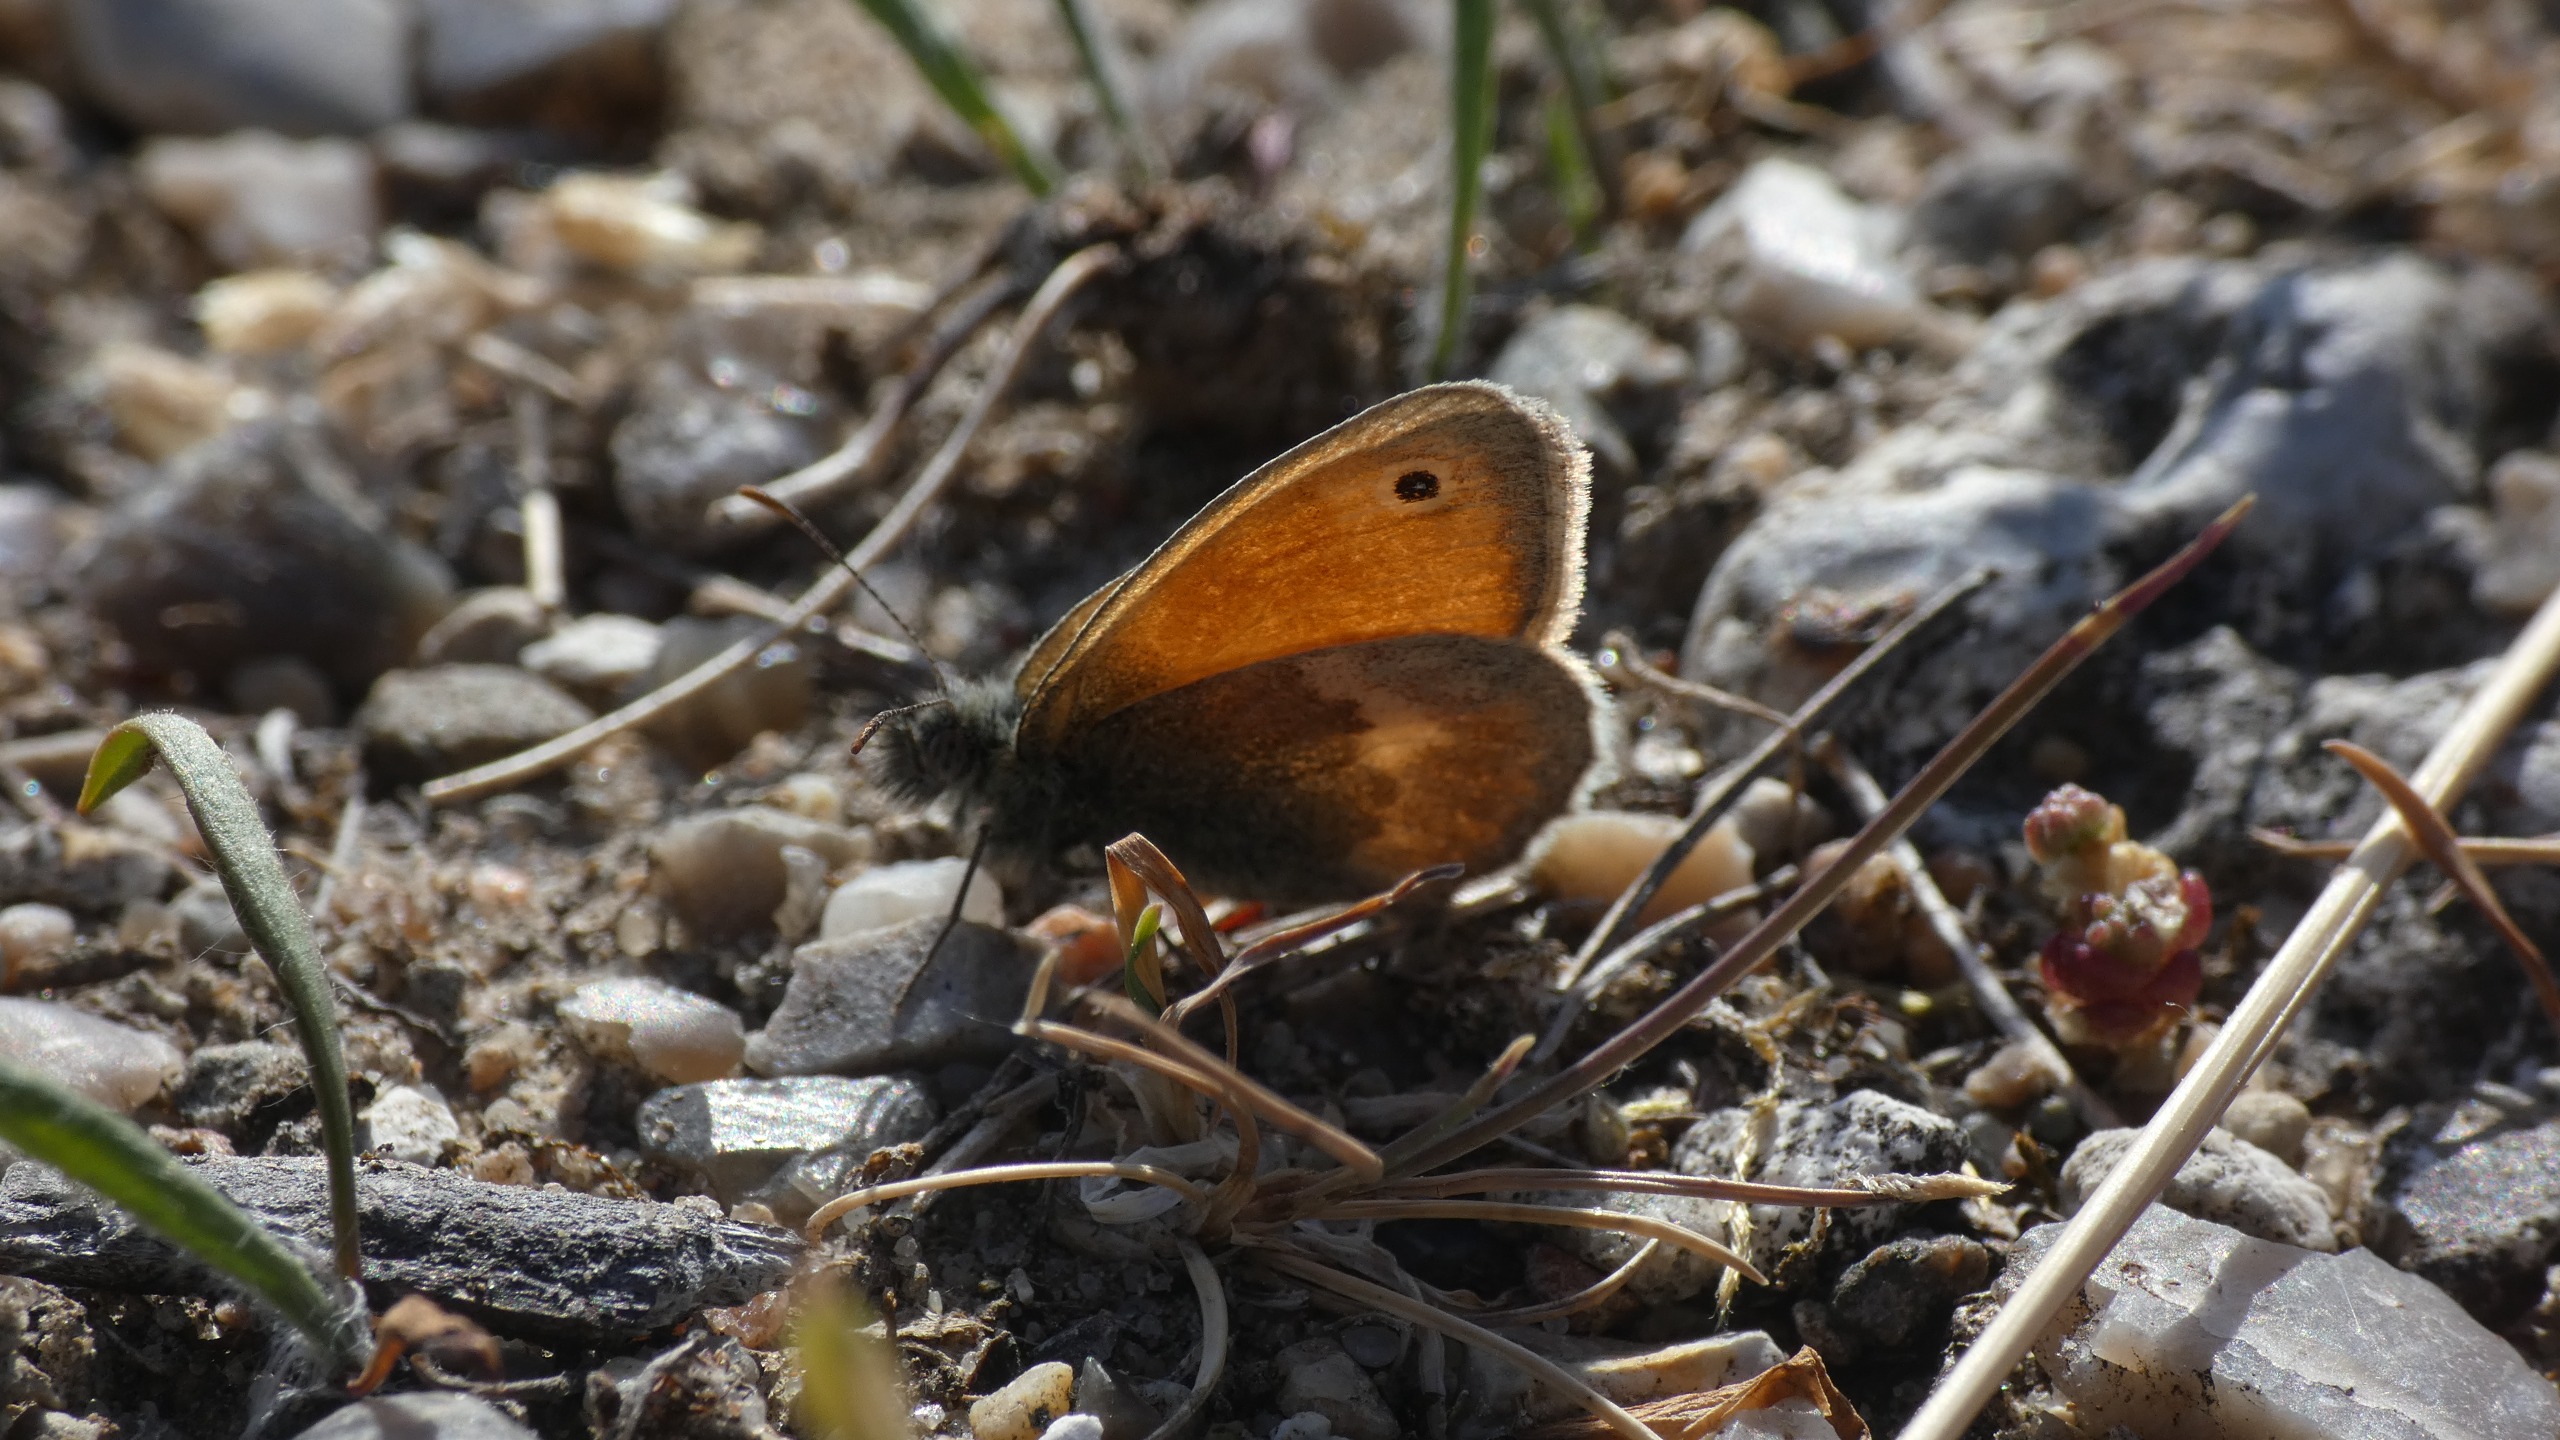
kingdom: Animalia
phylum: Arthropoda
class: Insecta
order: Lepidoptera
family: Nymphalidae
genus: Coenonympha
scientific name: Coenonympha pamphilus
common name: Okkergul randøje
